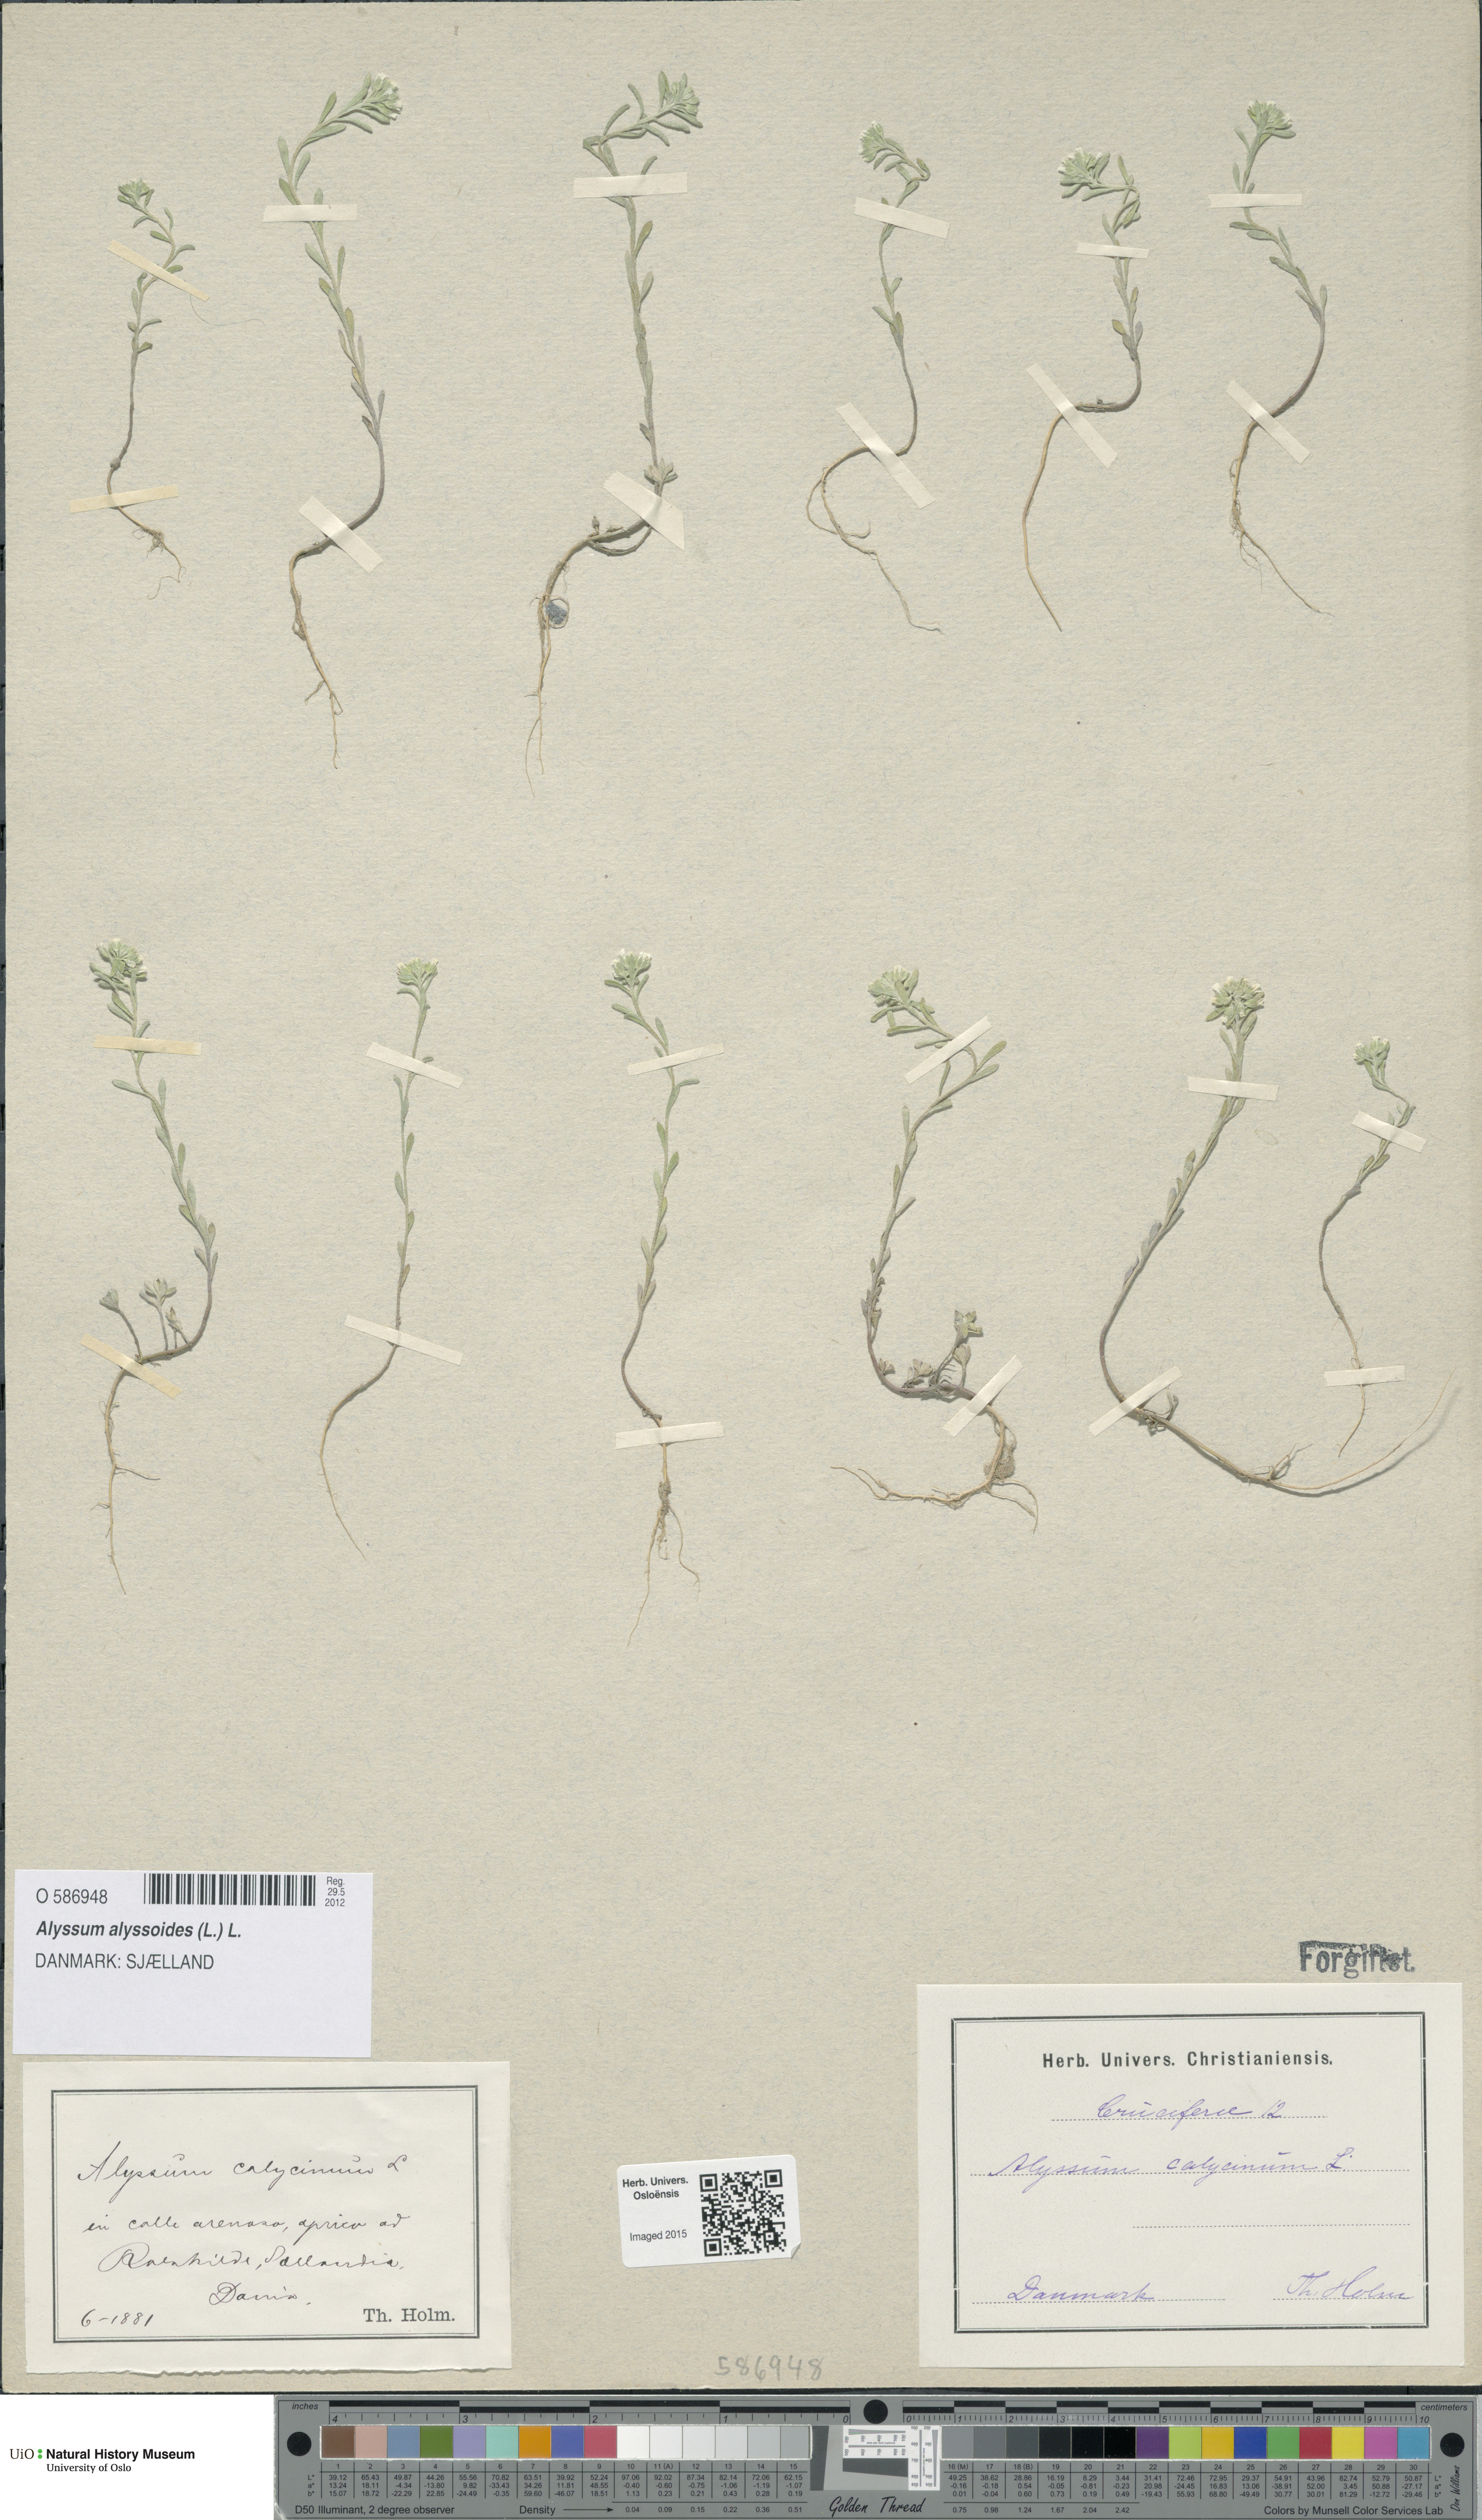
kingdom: Plantae
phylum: Tracheophyta
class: Magnoliopsida
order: Brassicales
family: Brassicaceae
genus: Alyssum
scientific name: Alyssum alyssoides
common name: Small alison
